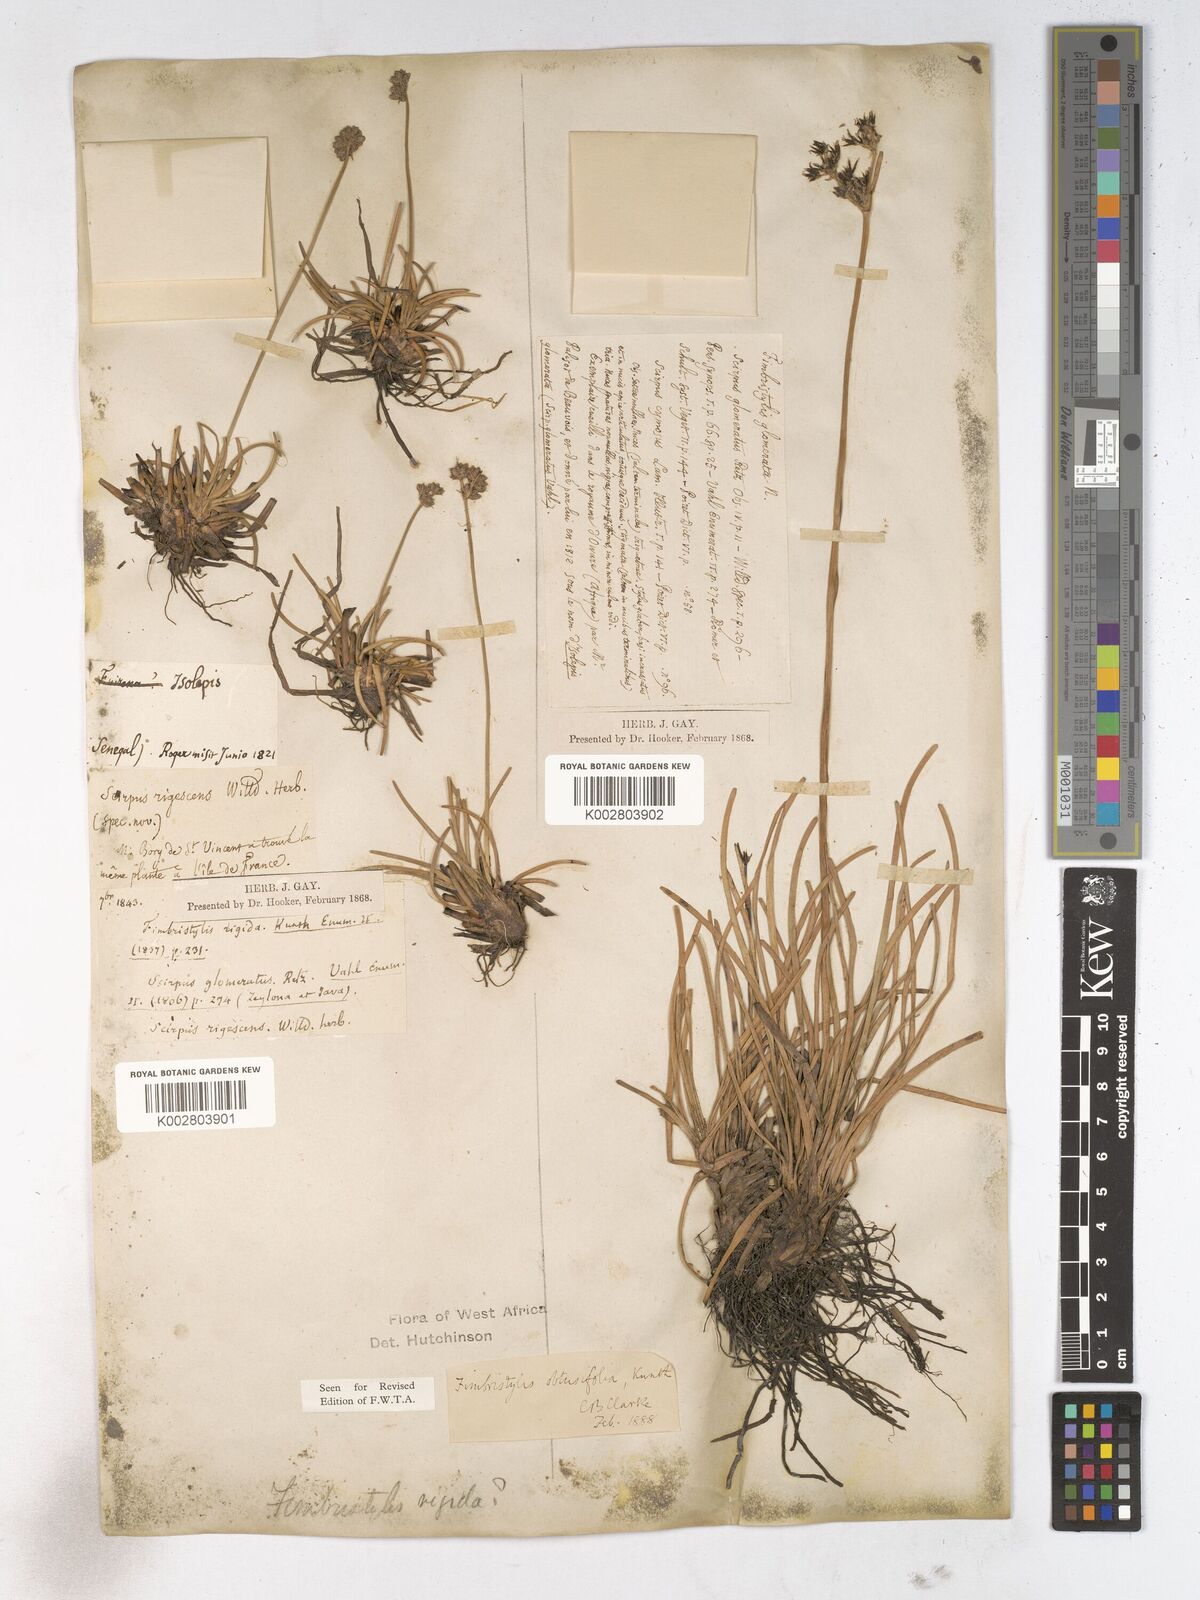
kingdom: Plantae
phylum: Tracheophyta
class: Liliopsida
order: Poales
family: Cyperaceae
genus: Fimbristylis
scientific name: Fimbristylis cymosa
